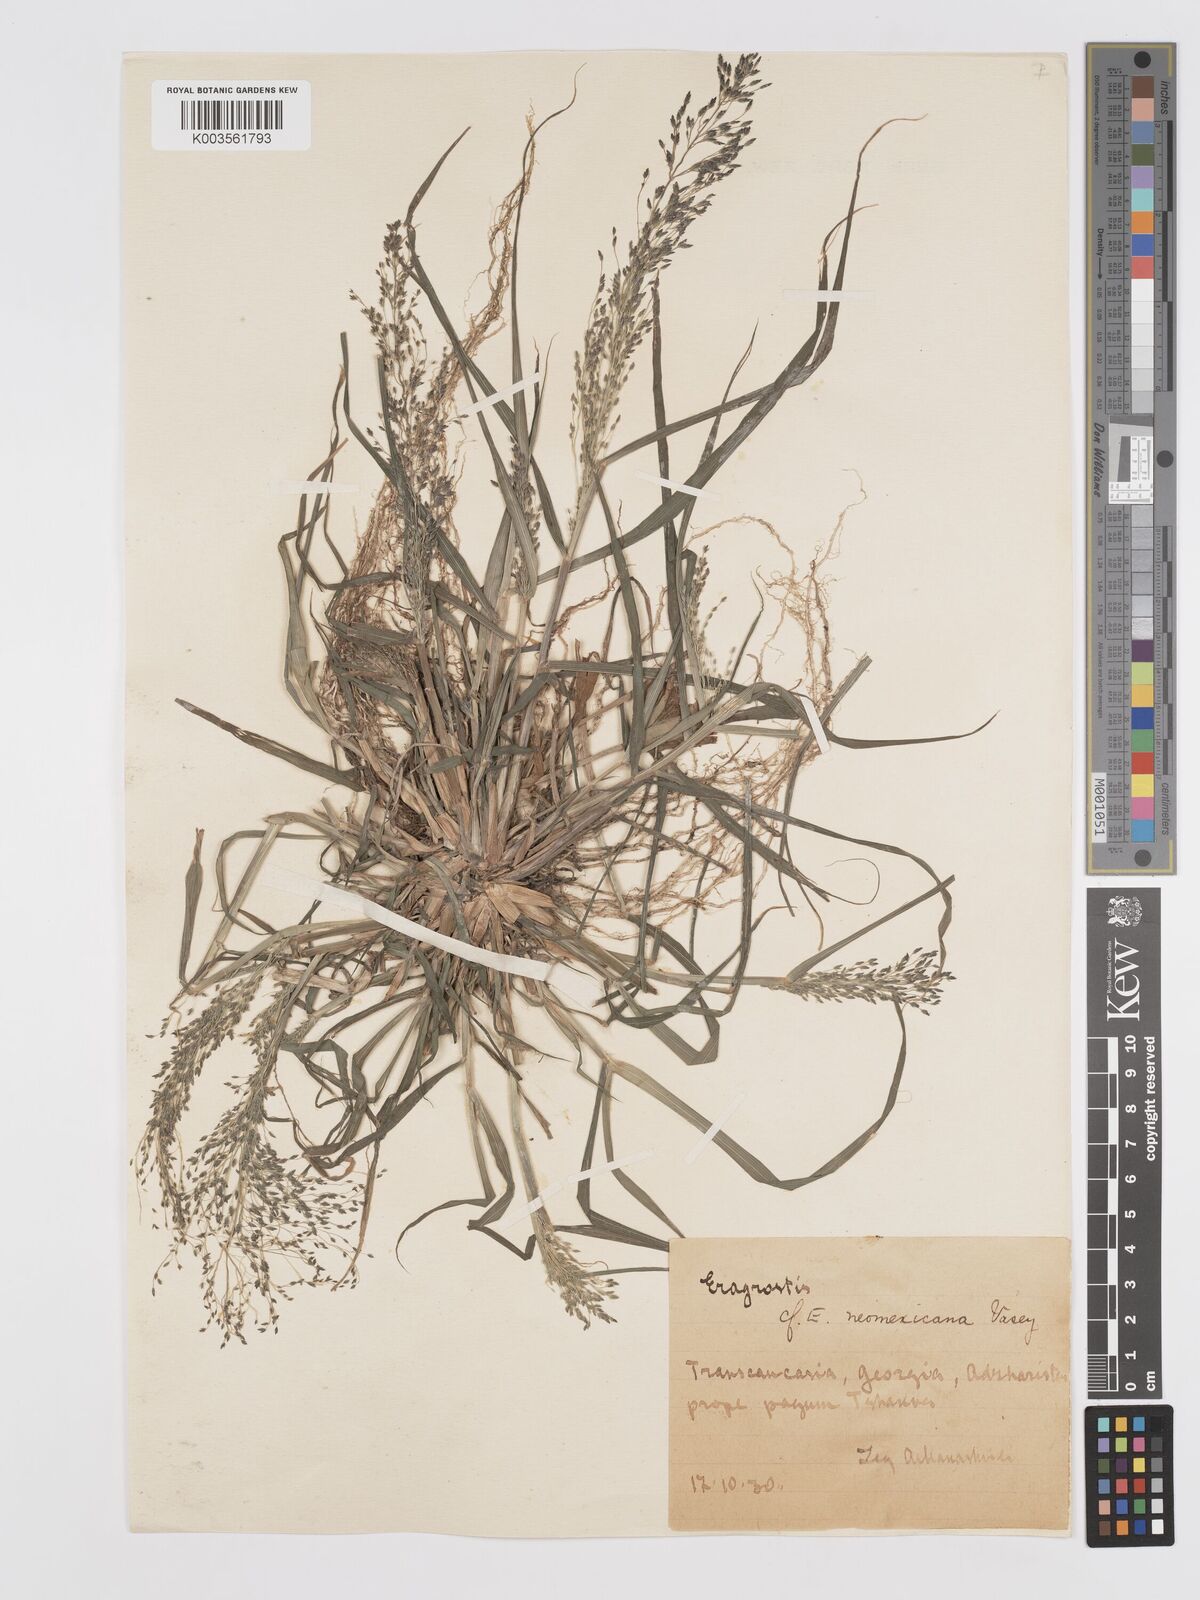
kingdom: Plantae
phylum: Tracheophyta
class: Liliopsida
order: Poales
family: Poaceae
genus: Eragrostis
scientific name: Eragrostis
